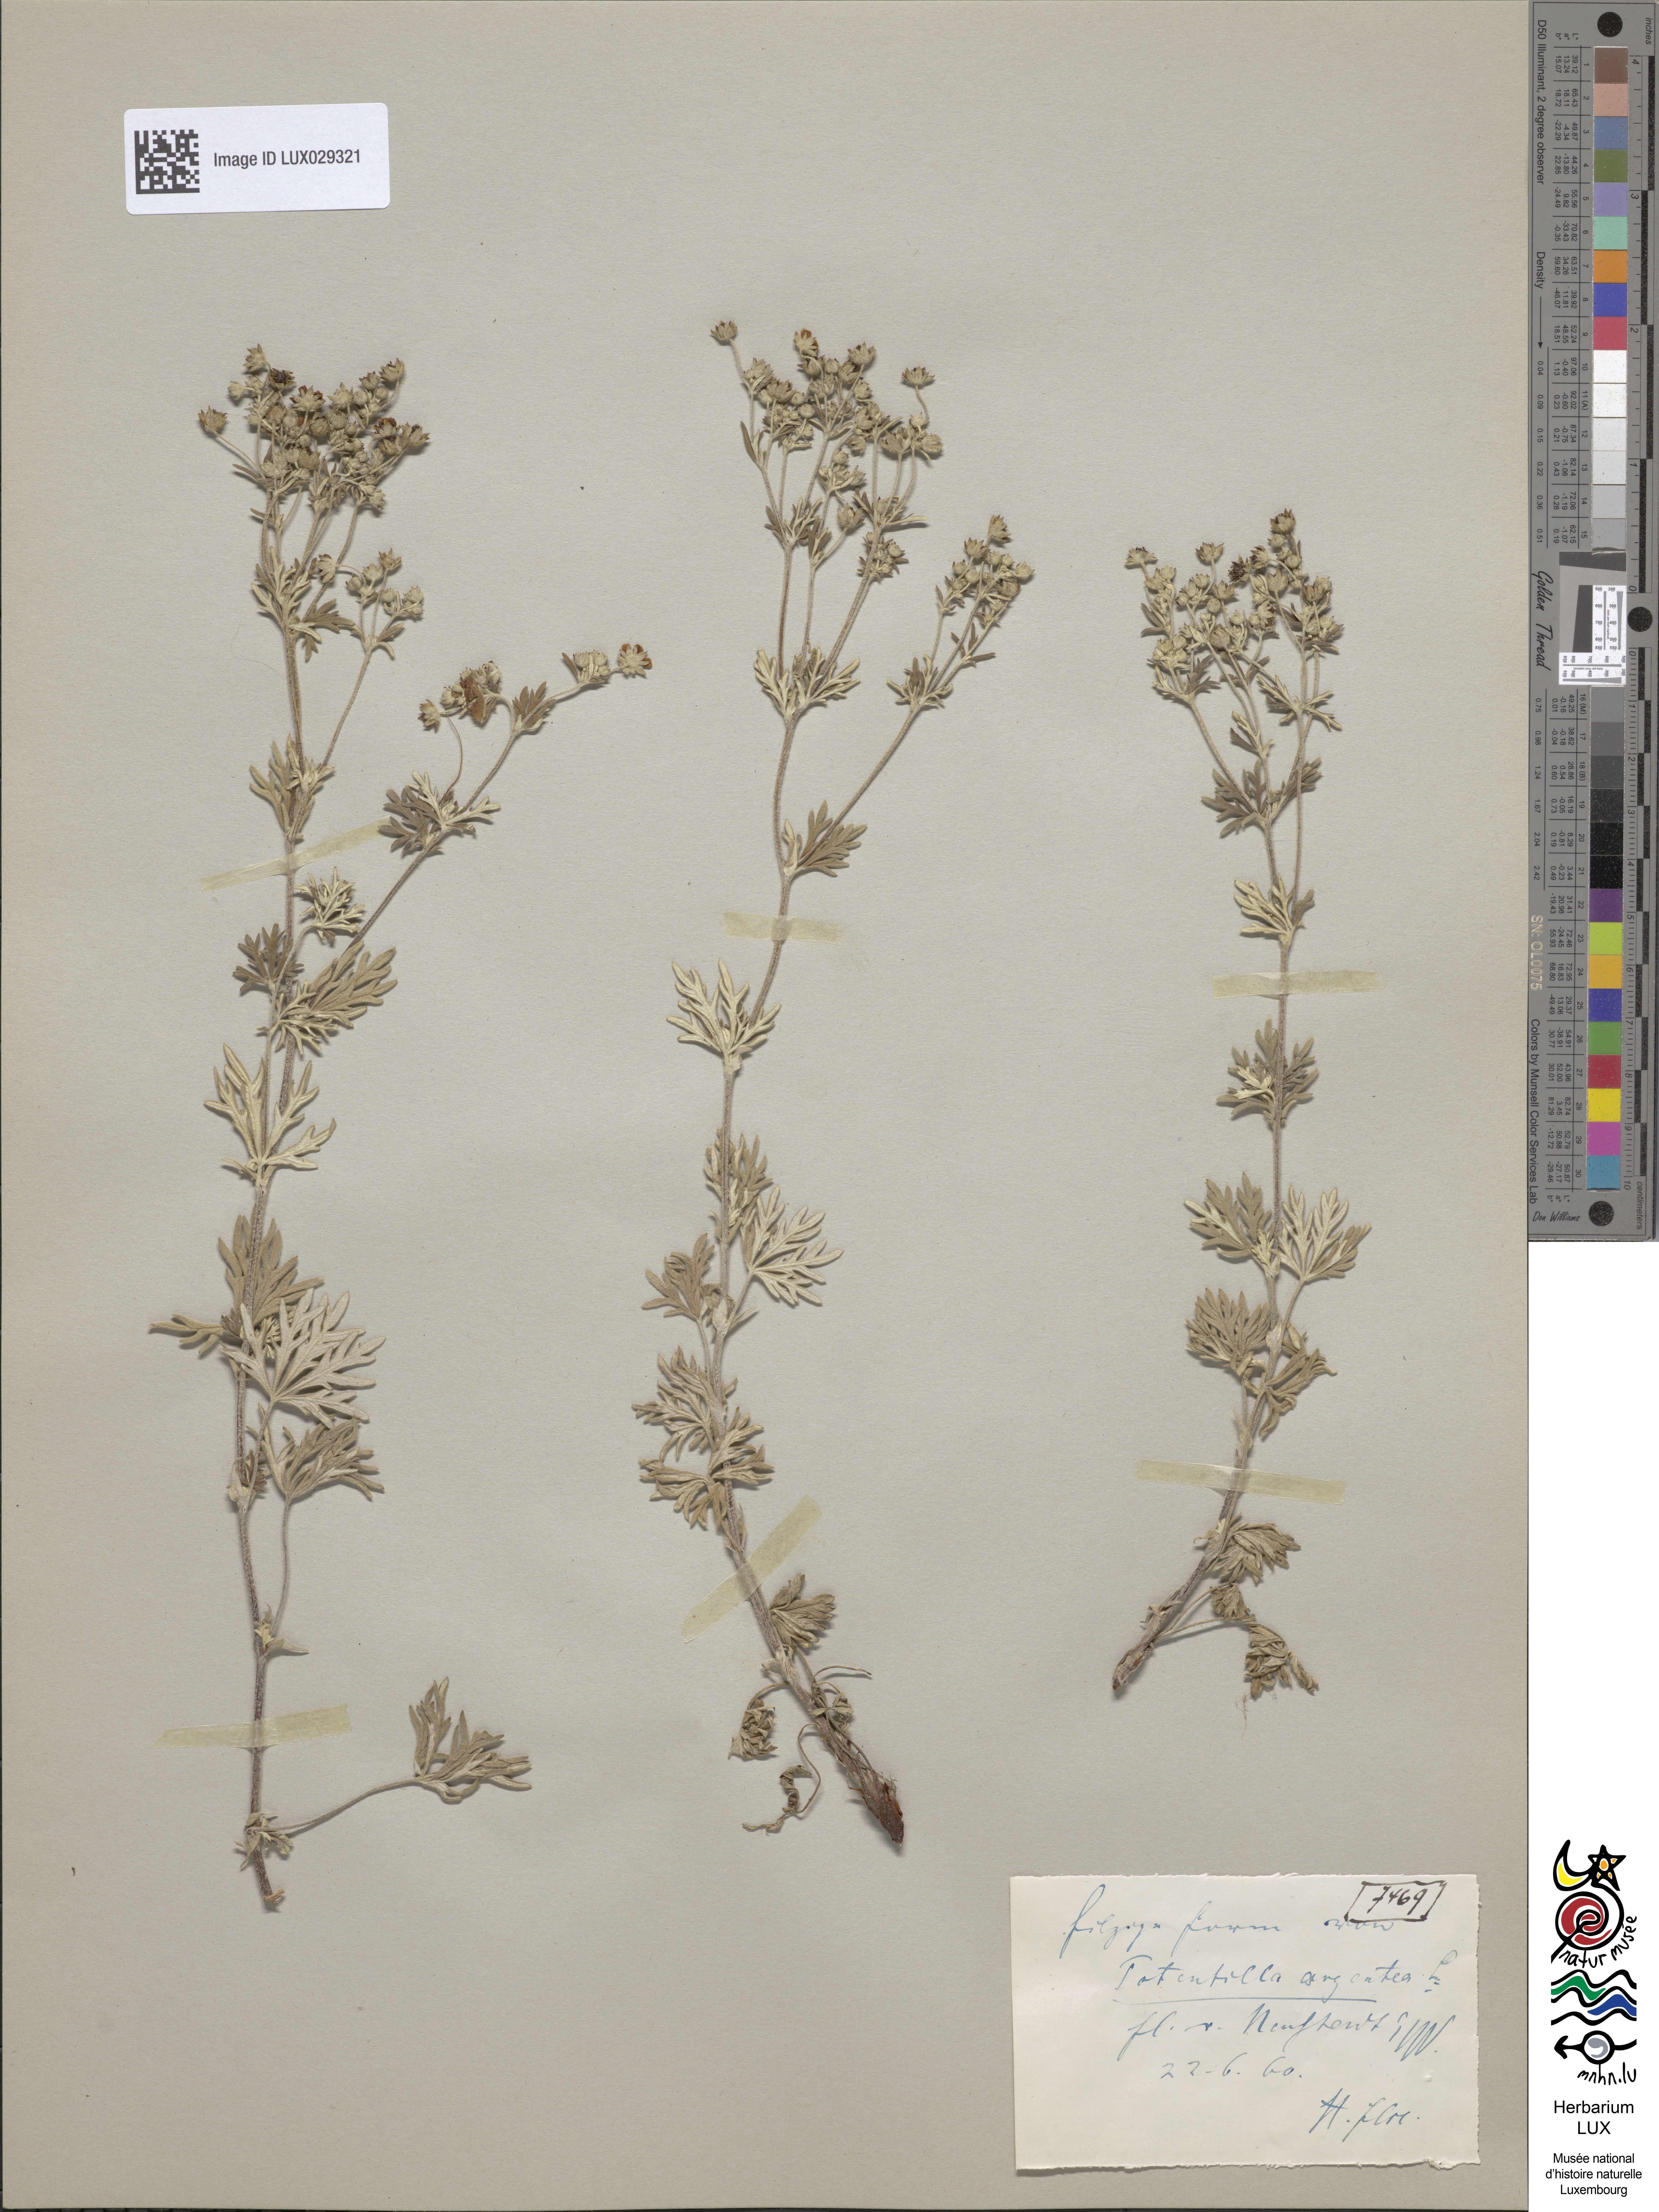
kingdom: Plantae
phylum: Tracheophyta
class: Magnoliopsida
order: Rosales
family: Rosaceae
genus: Potentilla
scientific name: Potentilla argentea
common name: Hoary cinquefoil
